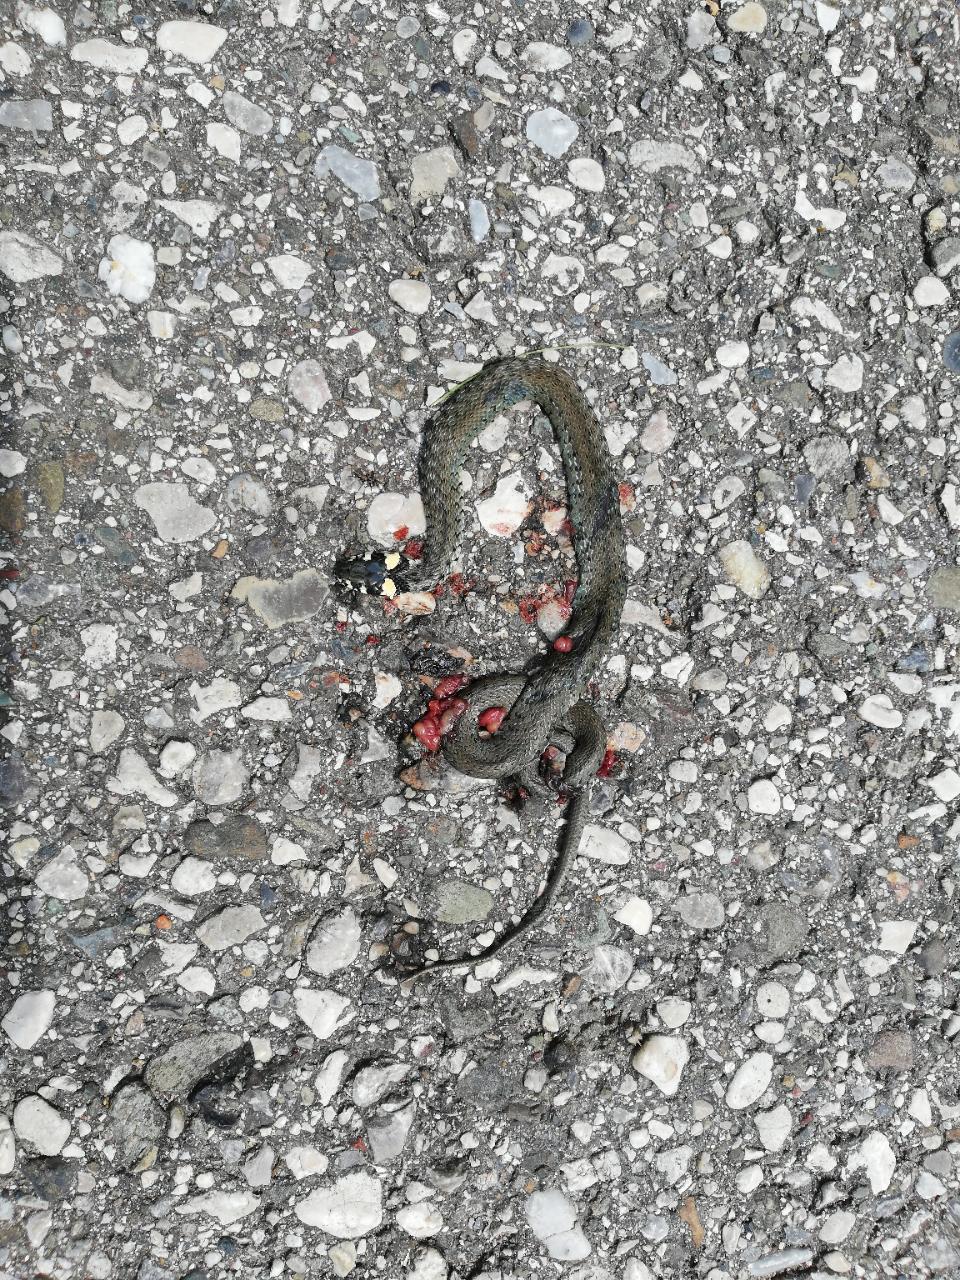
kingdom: Animalia
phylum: Chordata
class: Squamata
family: Colubridae
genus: Natrix
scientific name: Natrix natrix
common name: Grass snake
